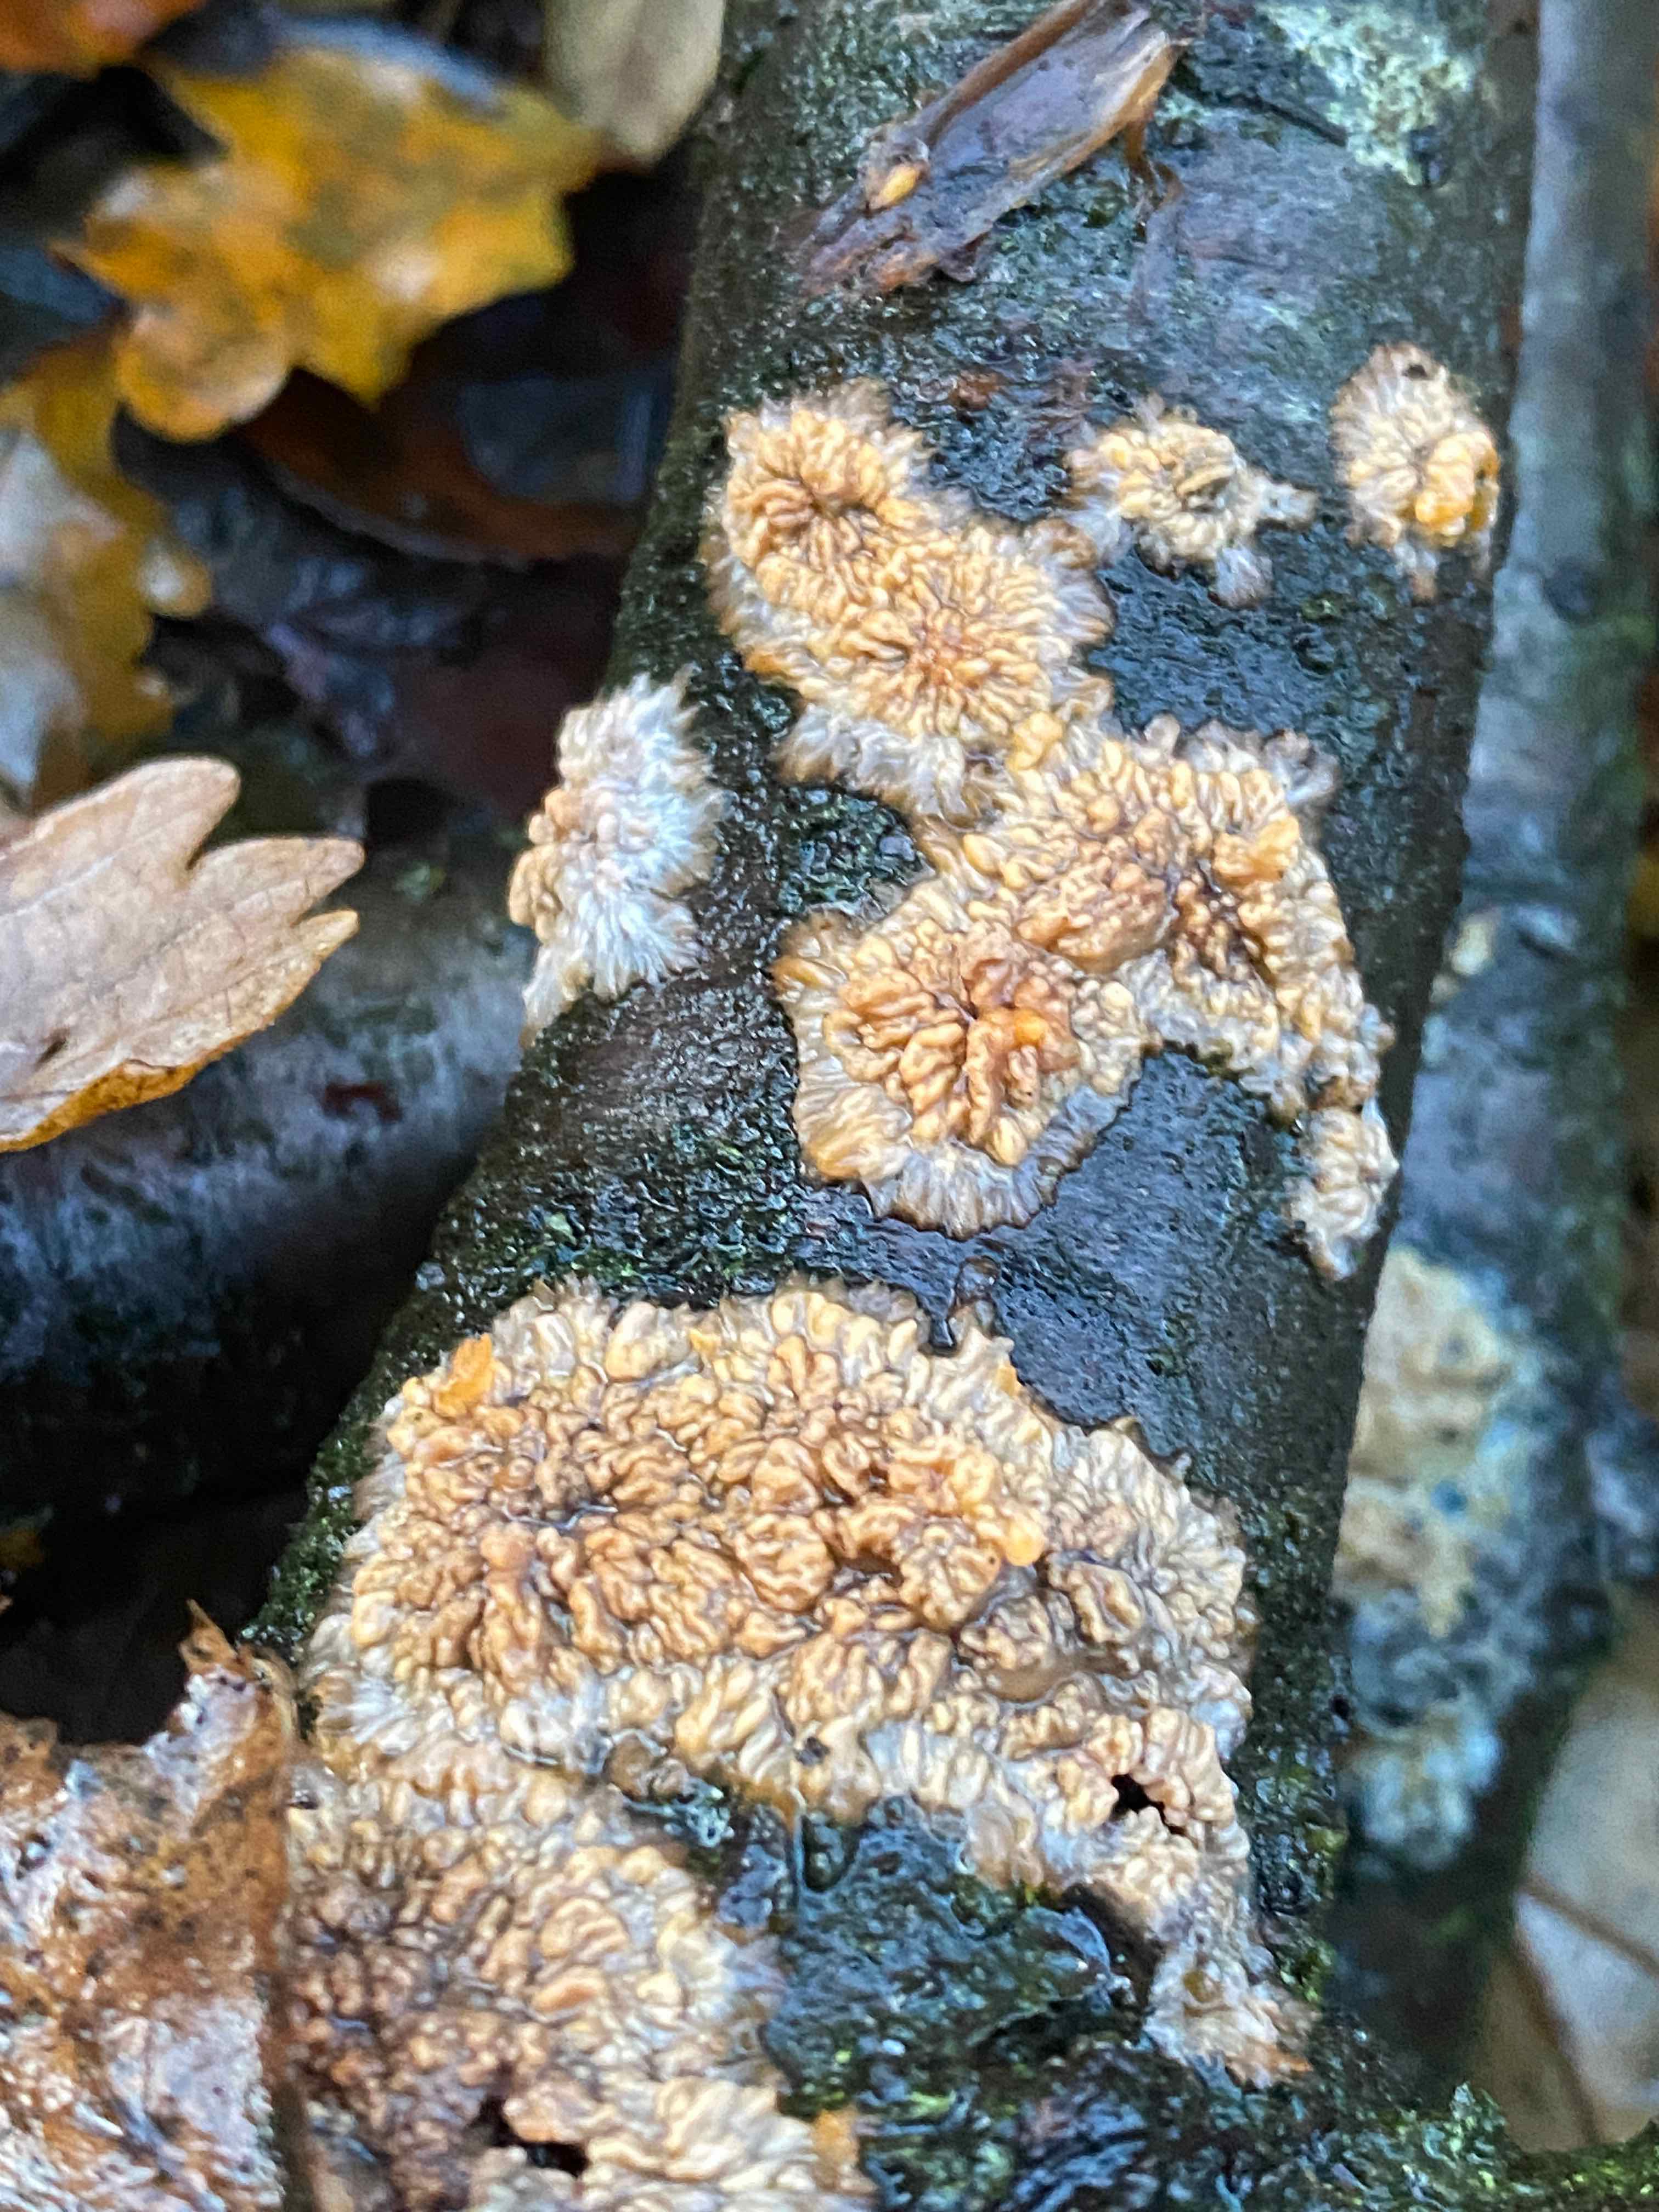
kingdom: Fungi
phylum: Basidiomycota
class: Agaricomycetes
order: Polyporales
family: Meruliaceae
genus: Phlebia
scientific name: Phlebia radiata
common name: stråle-åresvamp
